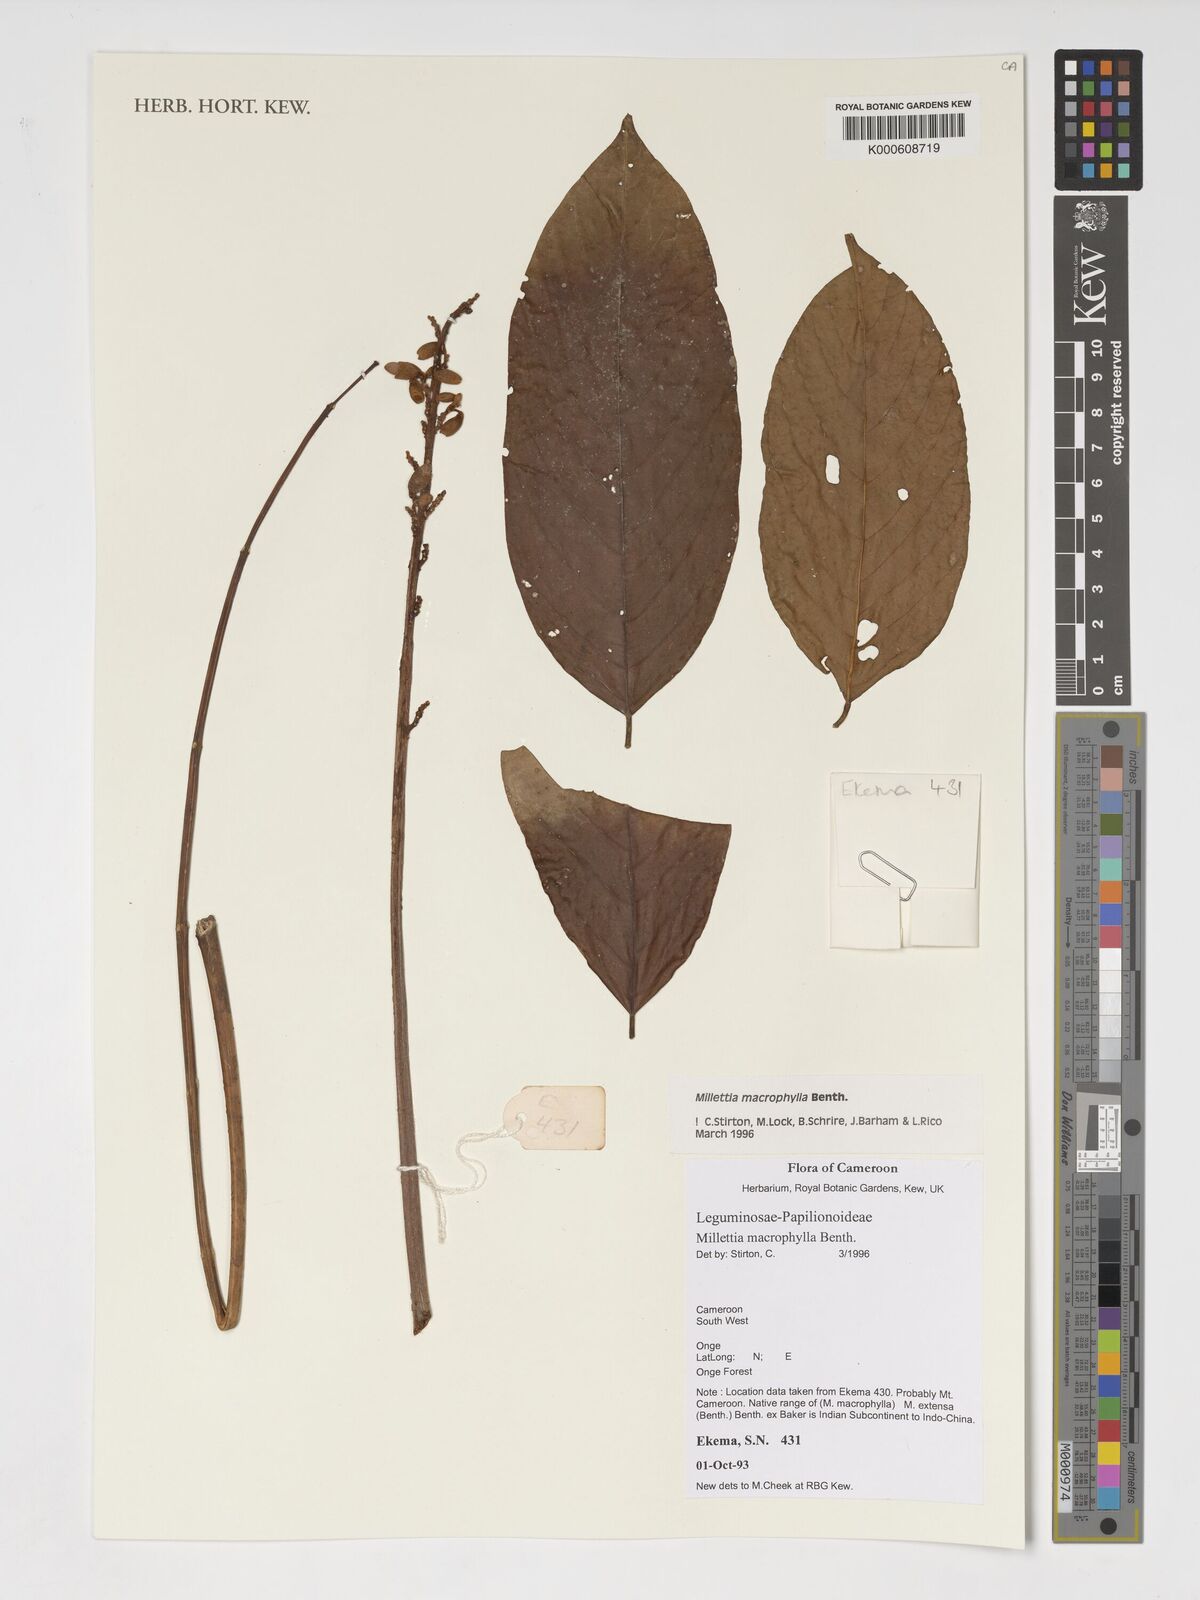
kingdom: Plantae
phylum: Tracheophyta
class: Magnoliopsida
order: Fabales
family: Fabaceae
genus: Millettia
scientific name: Millettia macrophylla
